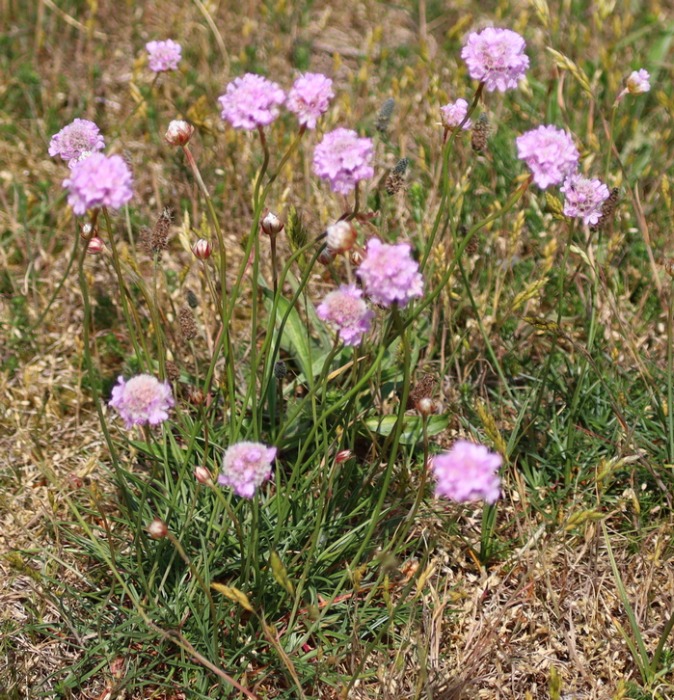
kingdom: Plantae
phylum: Tracheophyta
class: Magnoliopsida
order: Caryophyllales
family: Plumbaginaceae
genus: Armeria
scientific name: Armeria maritima
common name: Engelskgræs
